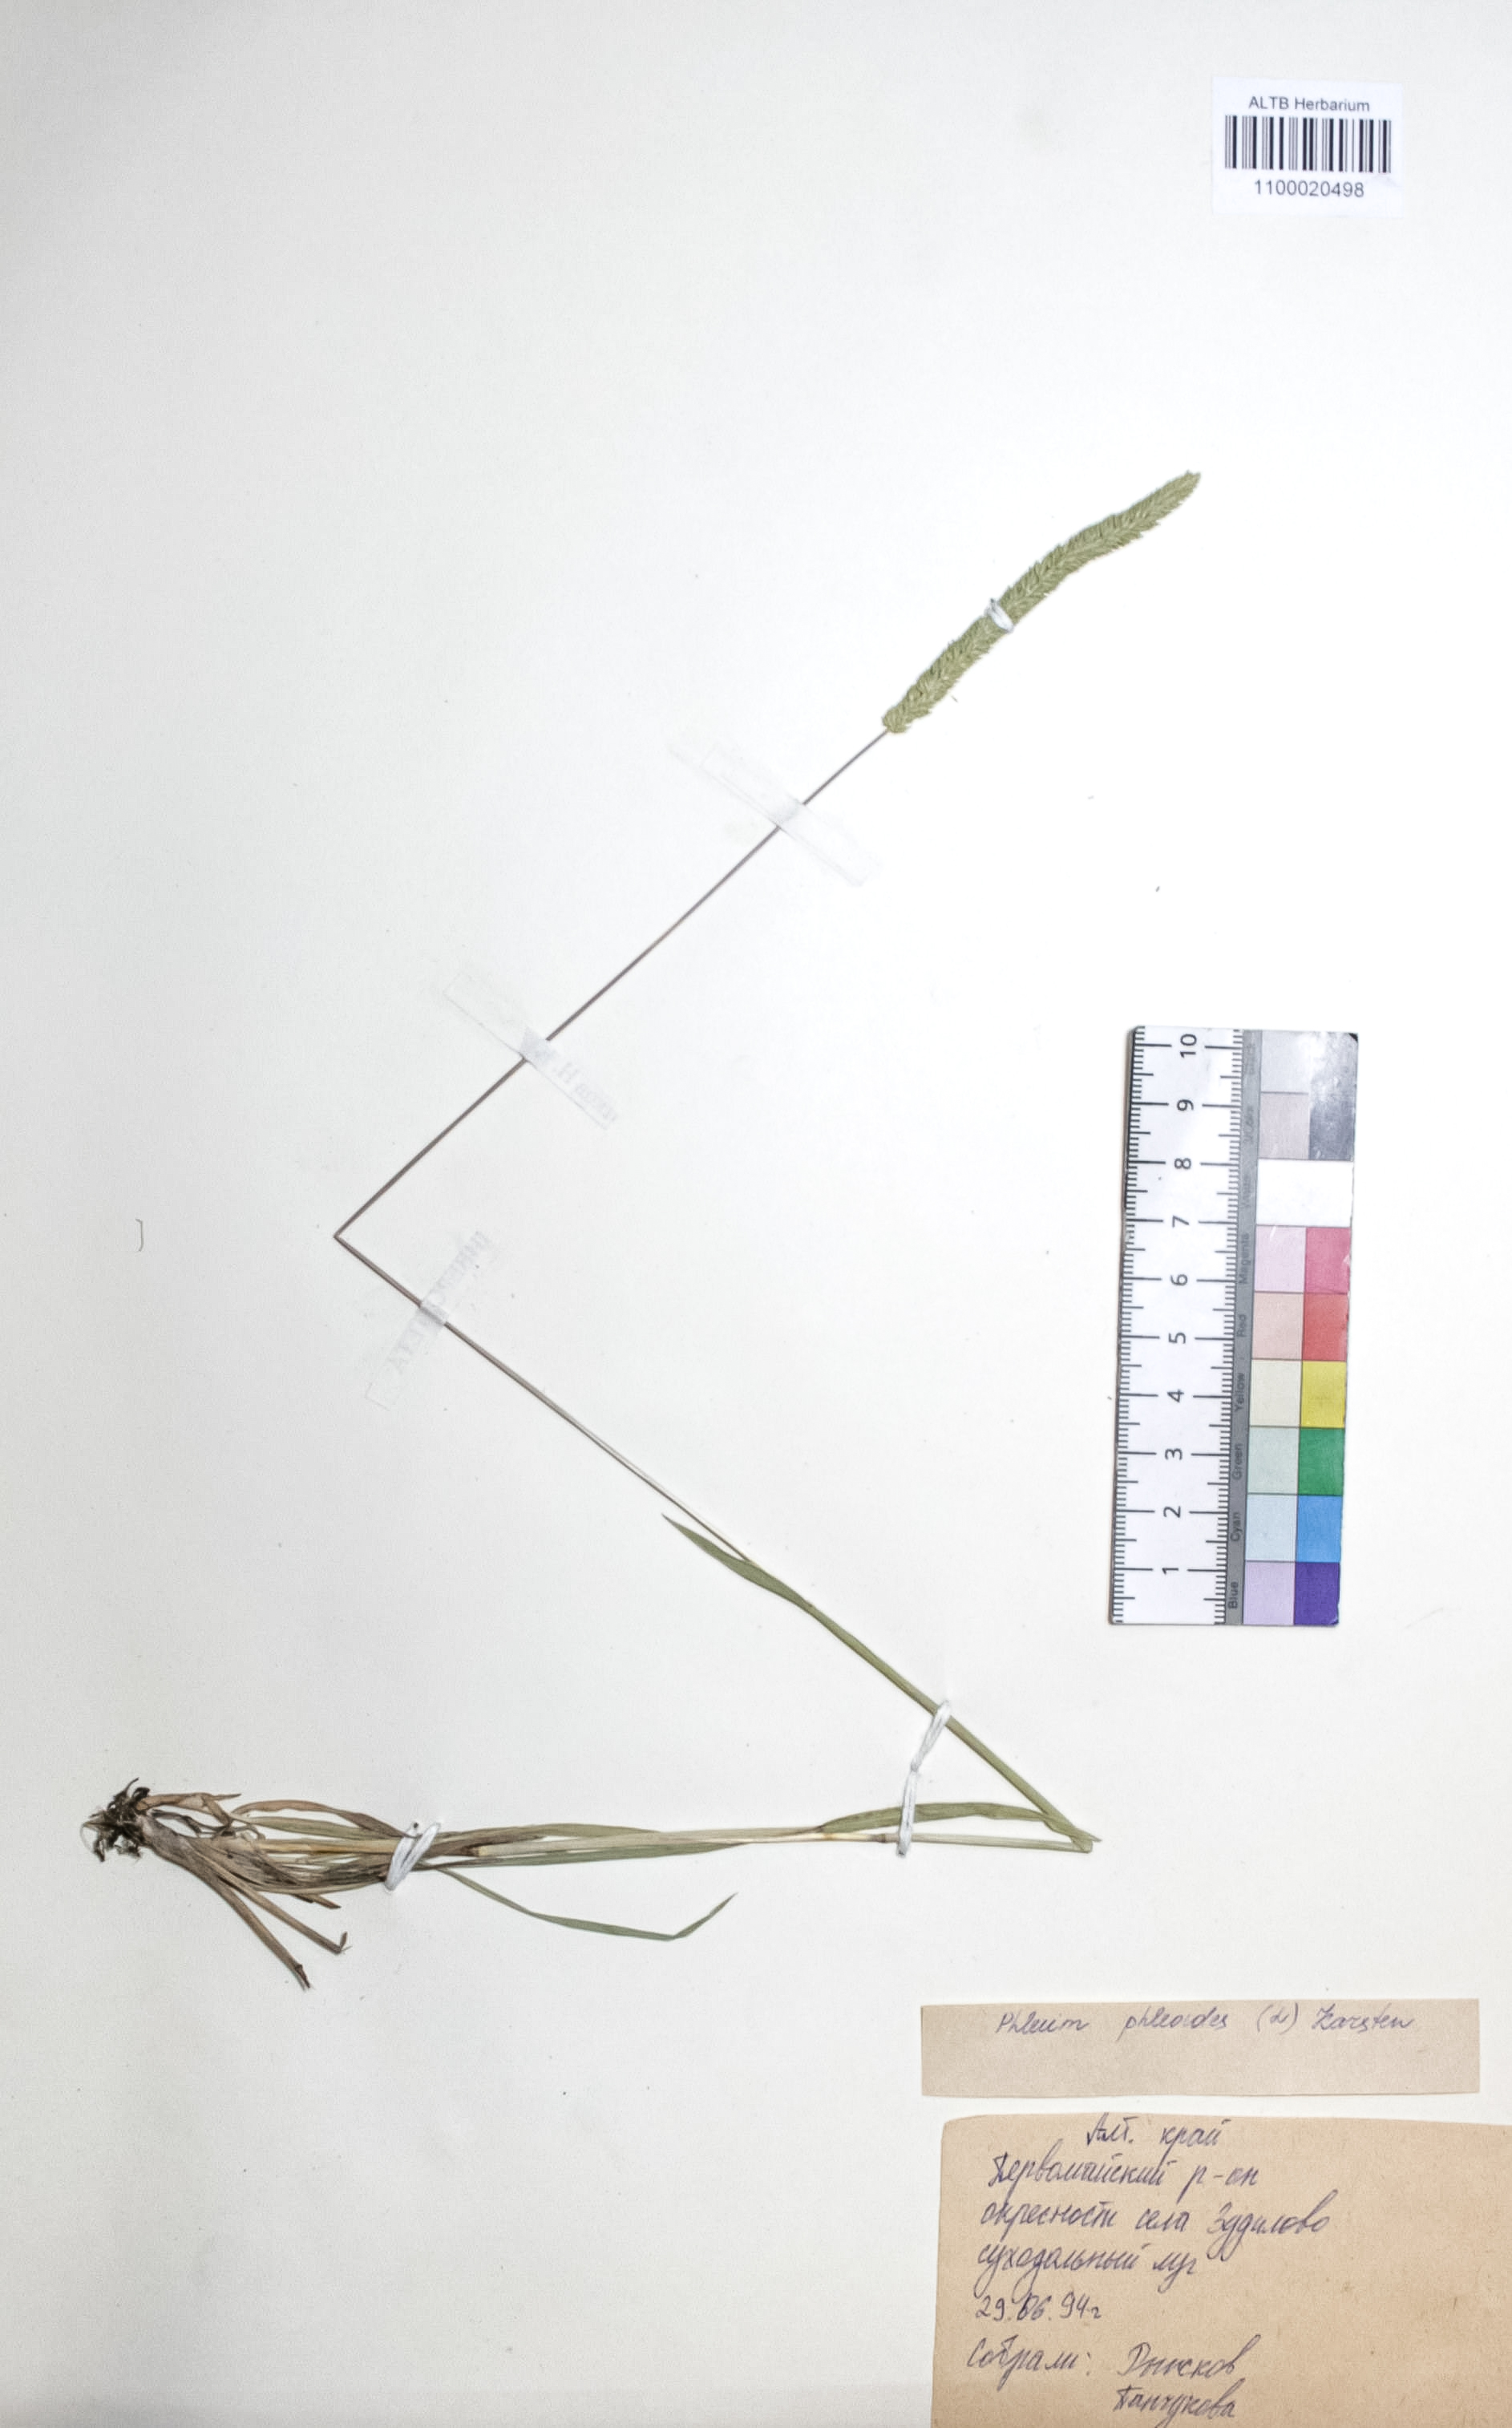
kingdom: Plantae
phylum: Tracheophyta
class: Liliopsida
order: Poales
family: Poaceae
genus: Phleum
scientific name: Phleum phleoides
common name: Purple-stem cat's-tail
